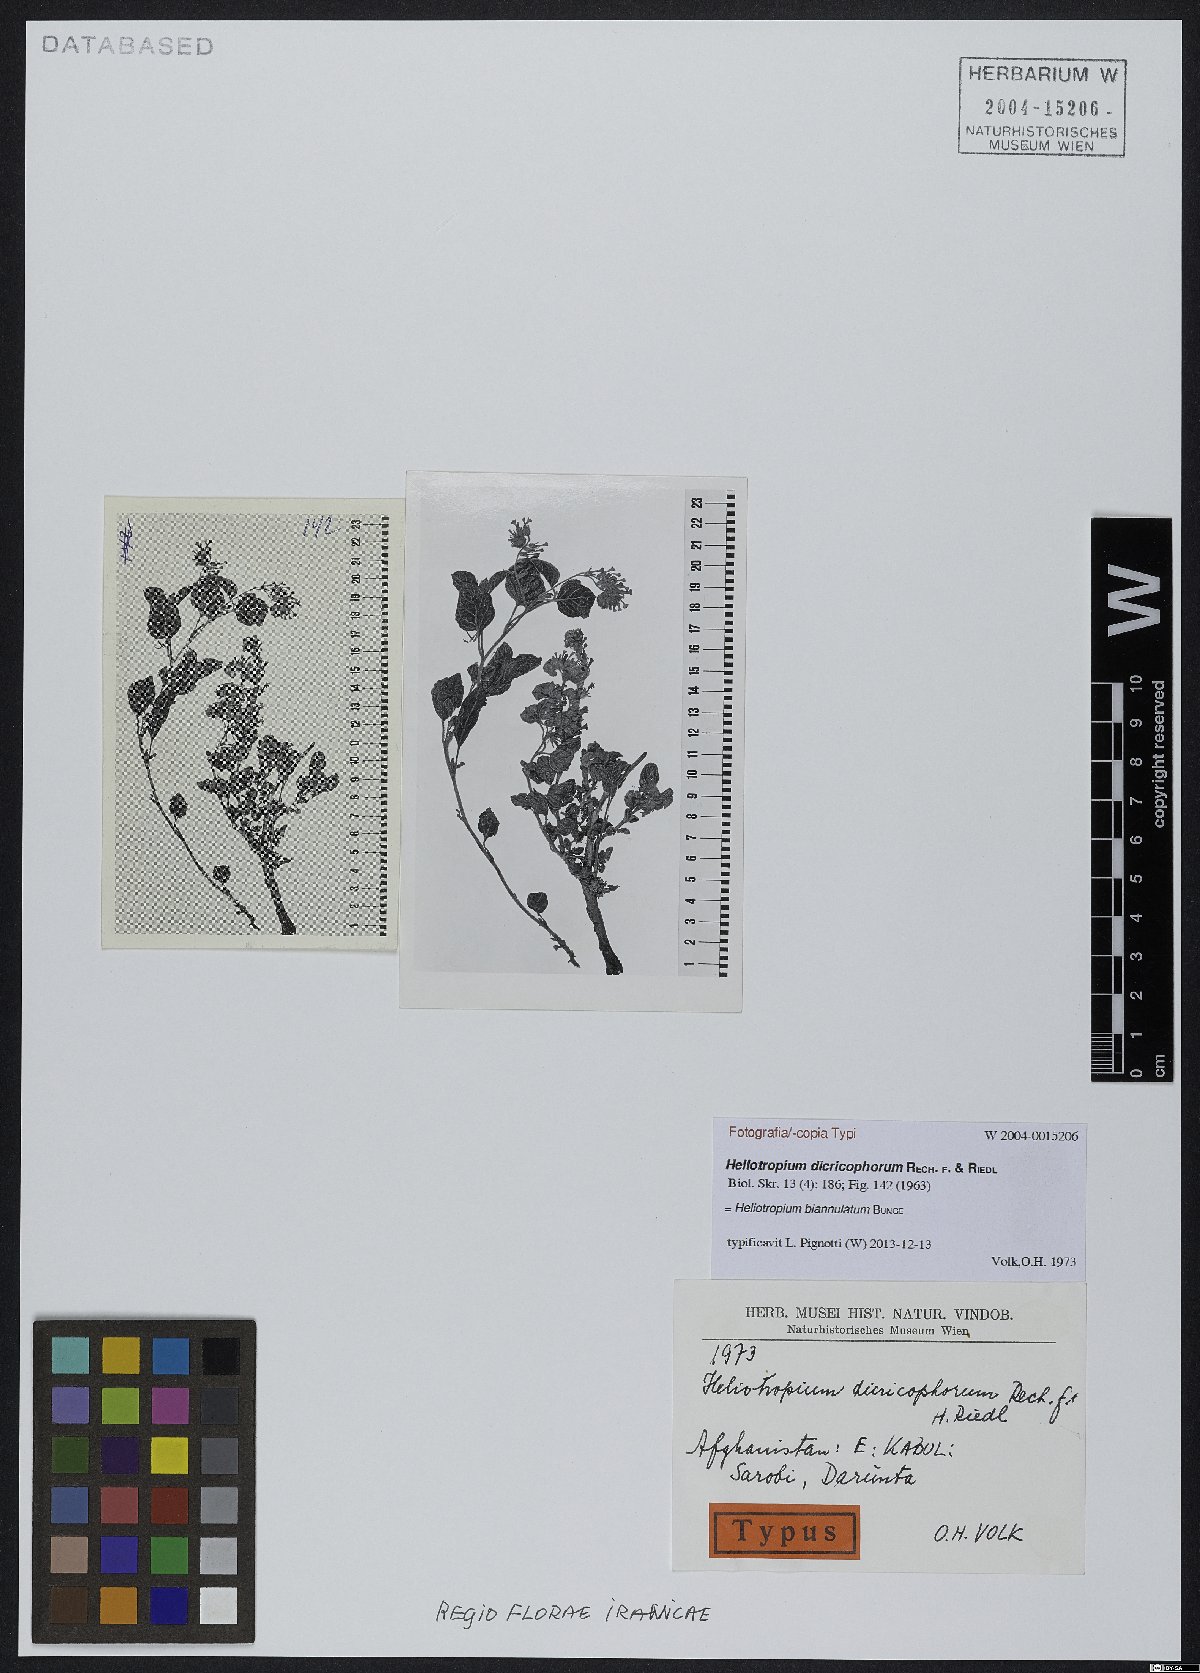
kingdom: Plantae
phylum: Tracheophyta
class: Magnoliopsida
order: Boraginales
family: Heliotropiaceae
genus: Heliotropium
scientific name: Heliotropium biannulatum
